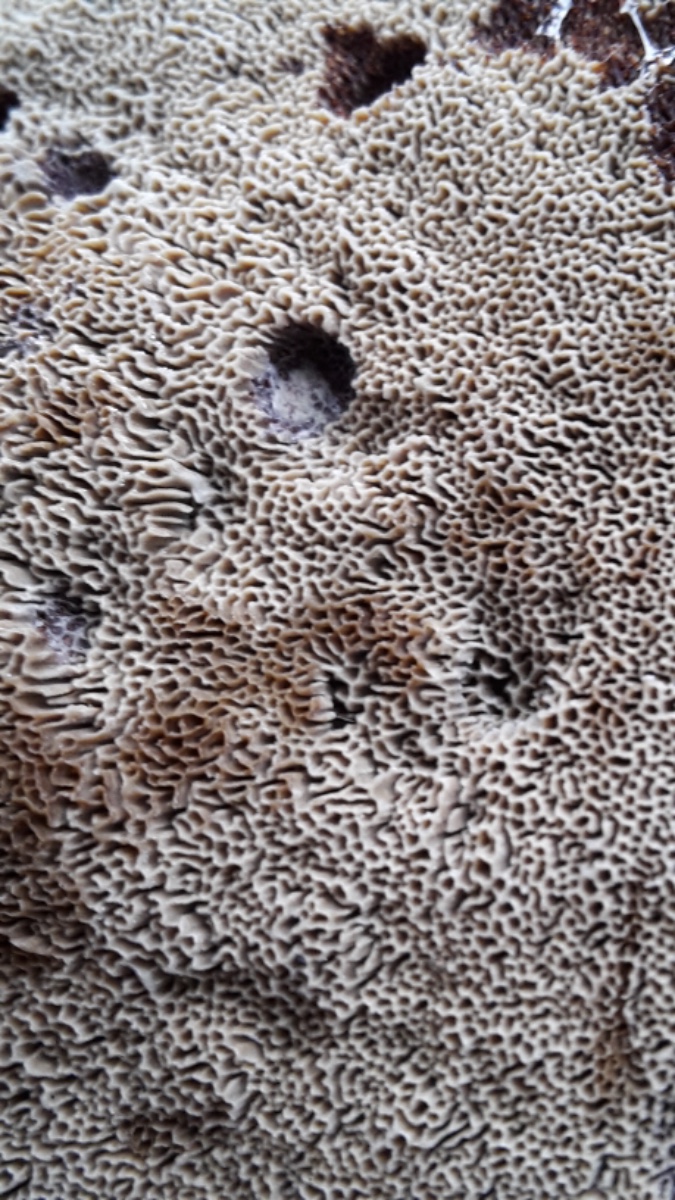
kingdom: Fungi
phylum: Basidiomycota
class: Agaricomycetes
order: Polyporales
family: Laetiporaceae
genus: Phaeolus
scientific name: Phaeolus schweinitzii
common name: brunporesvamp
